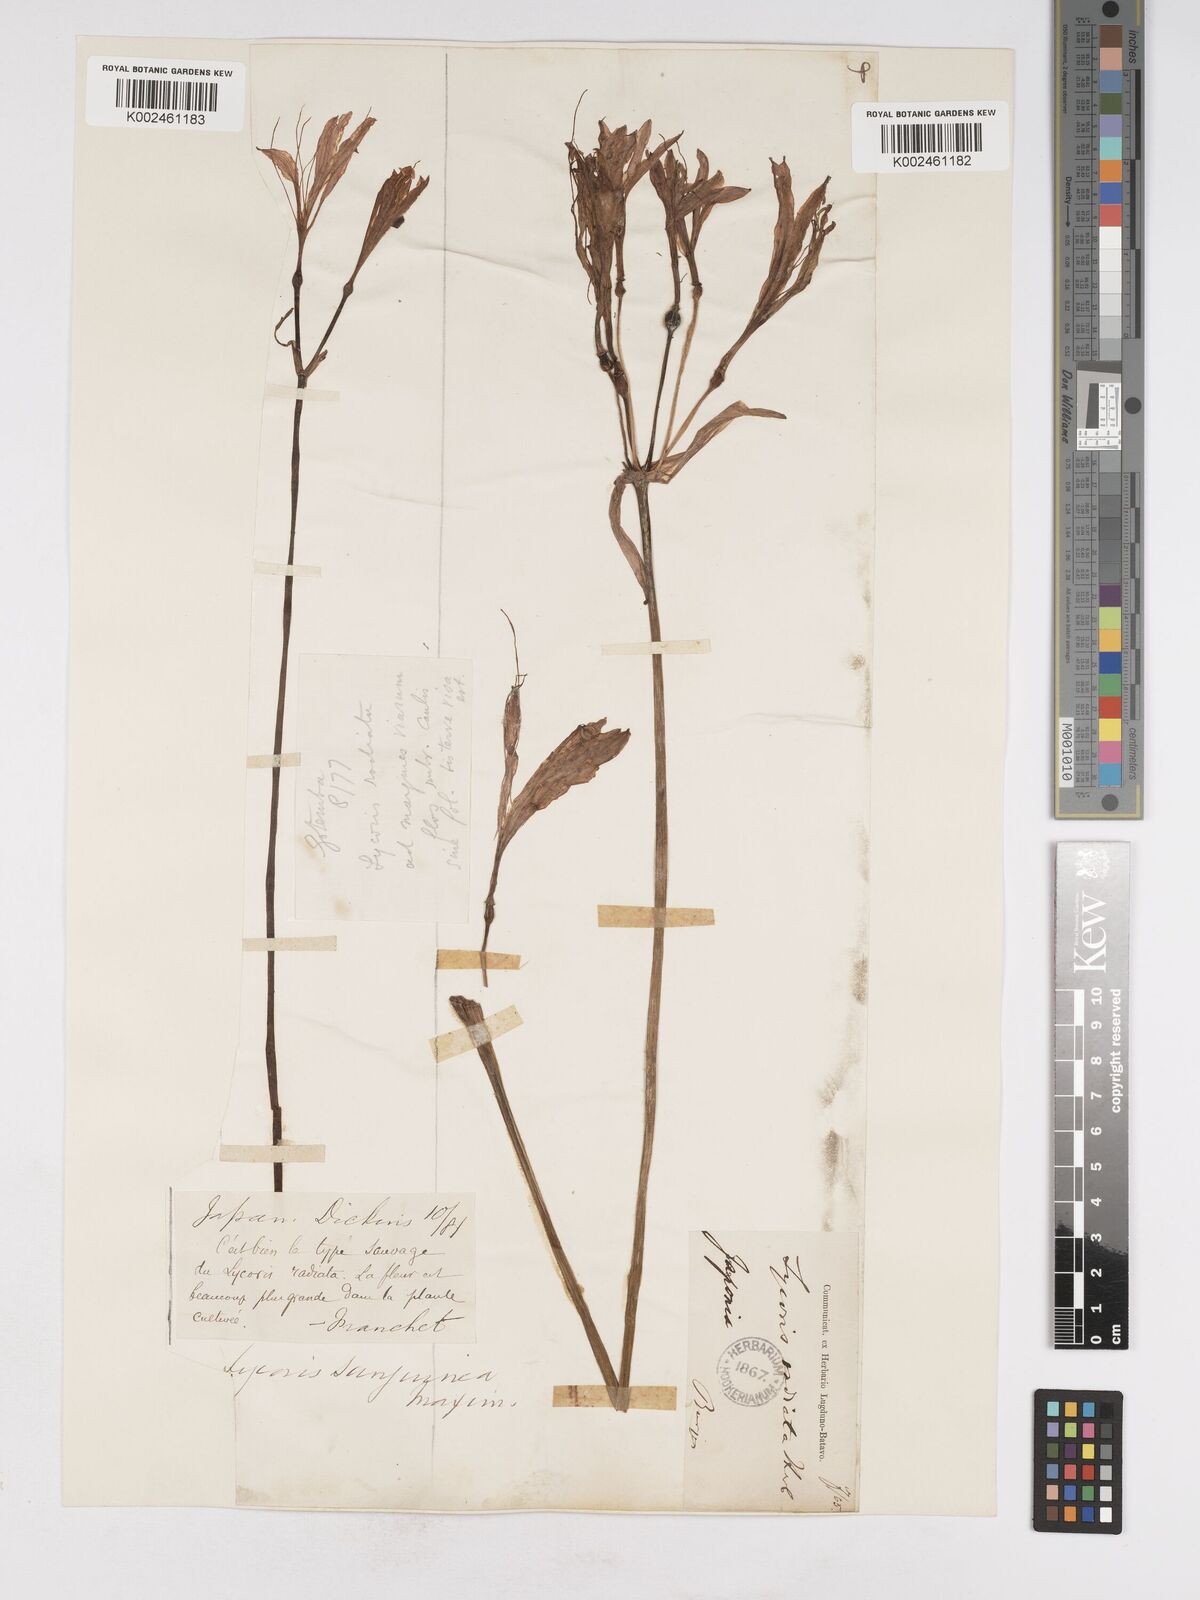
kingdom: Plantae
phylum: Tracheophyta
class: Liliopsida
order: Asparagales
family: Amaryllidaceae
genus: Lycoris
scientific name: Lycoris sanguinea
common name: Spider-lily
